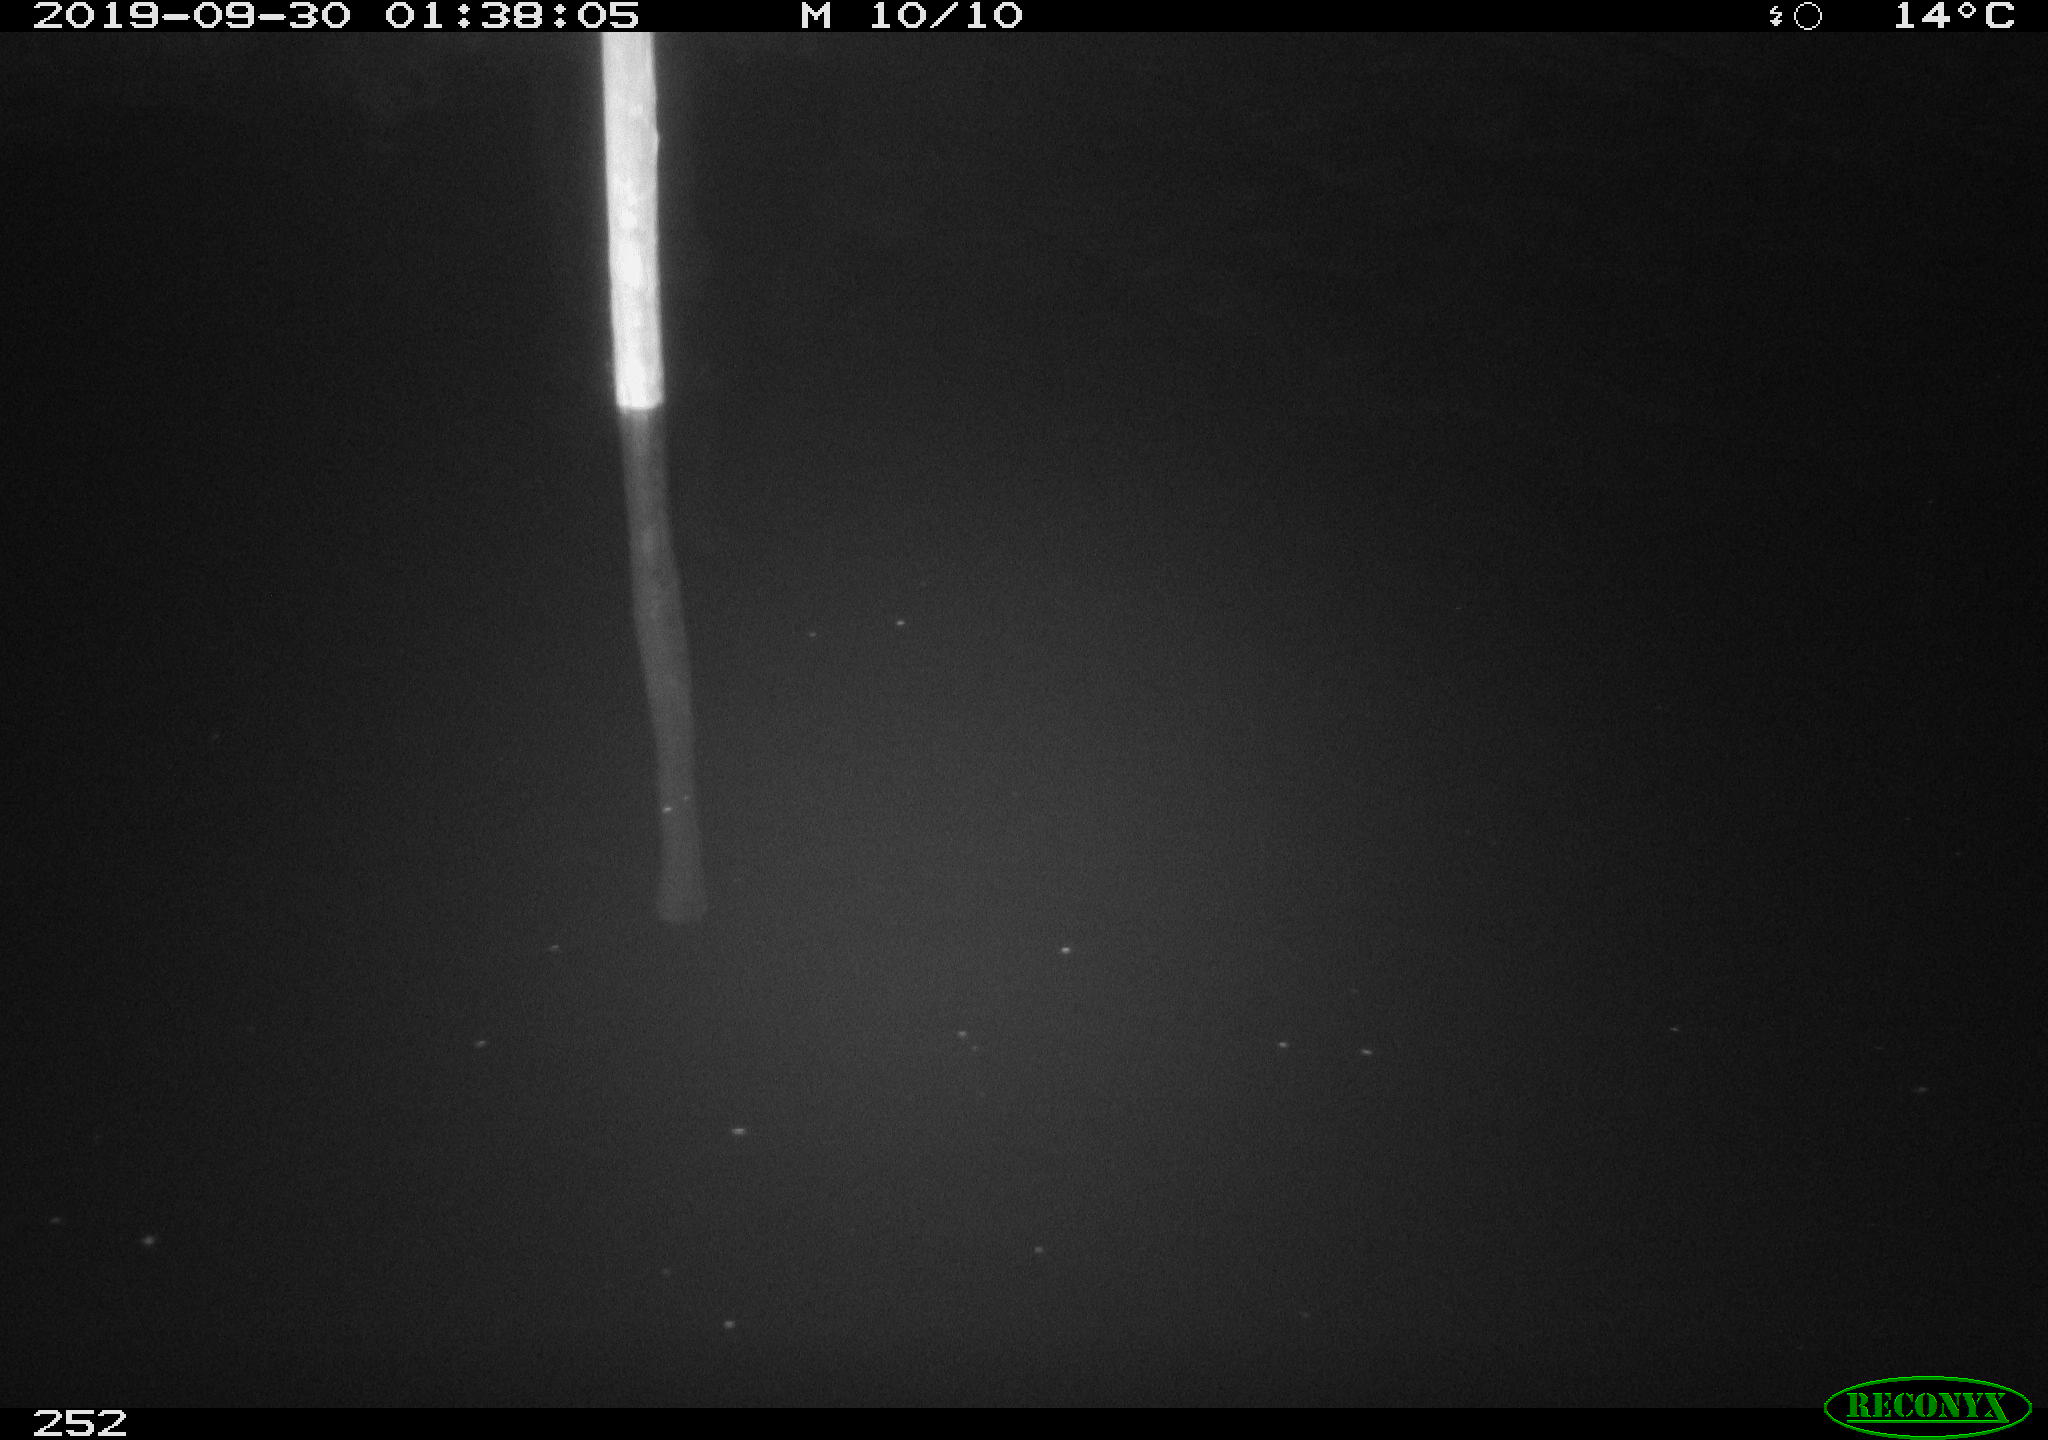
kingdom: Animalia
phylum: Chordata
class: Aves
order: Anseriformes
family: Anatidae
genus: Anas
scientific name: Anas platyrhynchos
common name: Mallard
